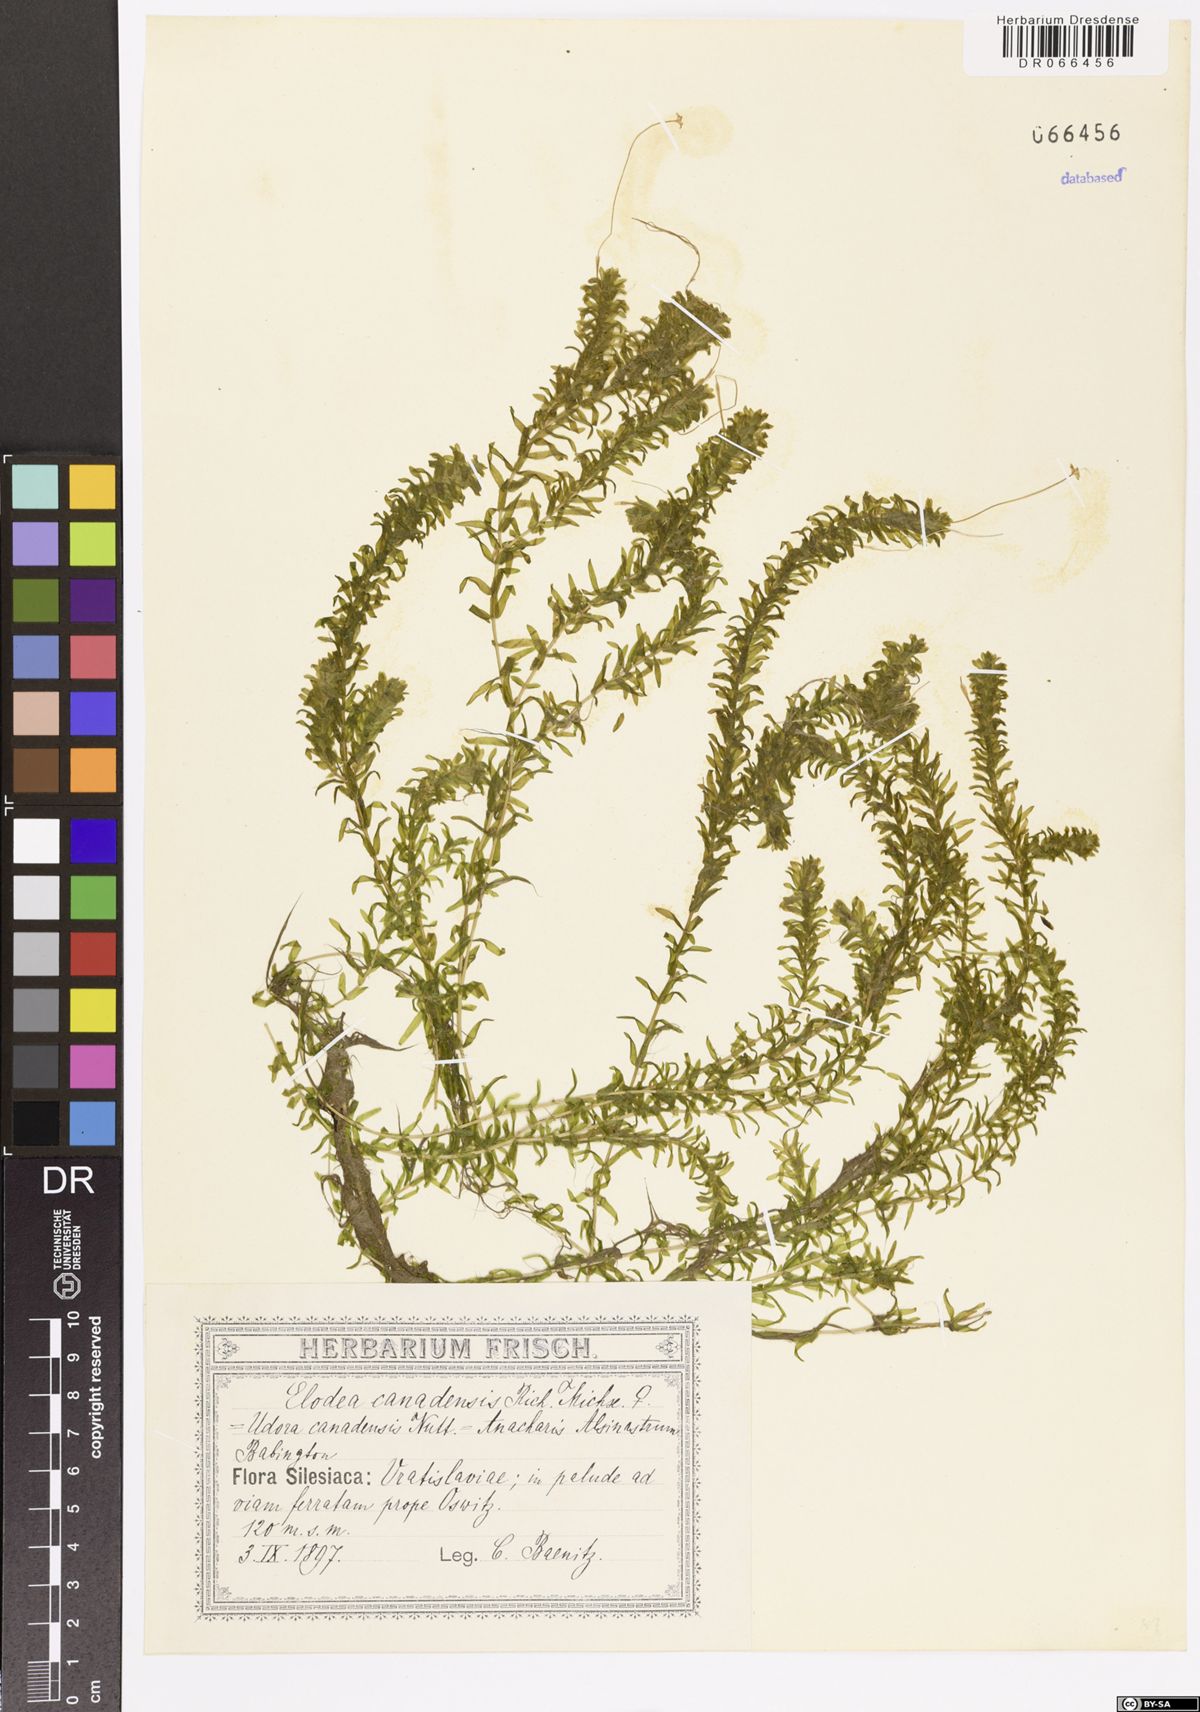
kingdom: Plantae
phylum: Tracheophyta
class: Liliopsida
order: Alismatales
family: Hydrocharitaceae
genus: Elodea
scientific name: Elodea canadensis
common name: Canadian waterweed
